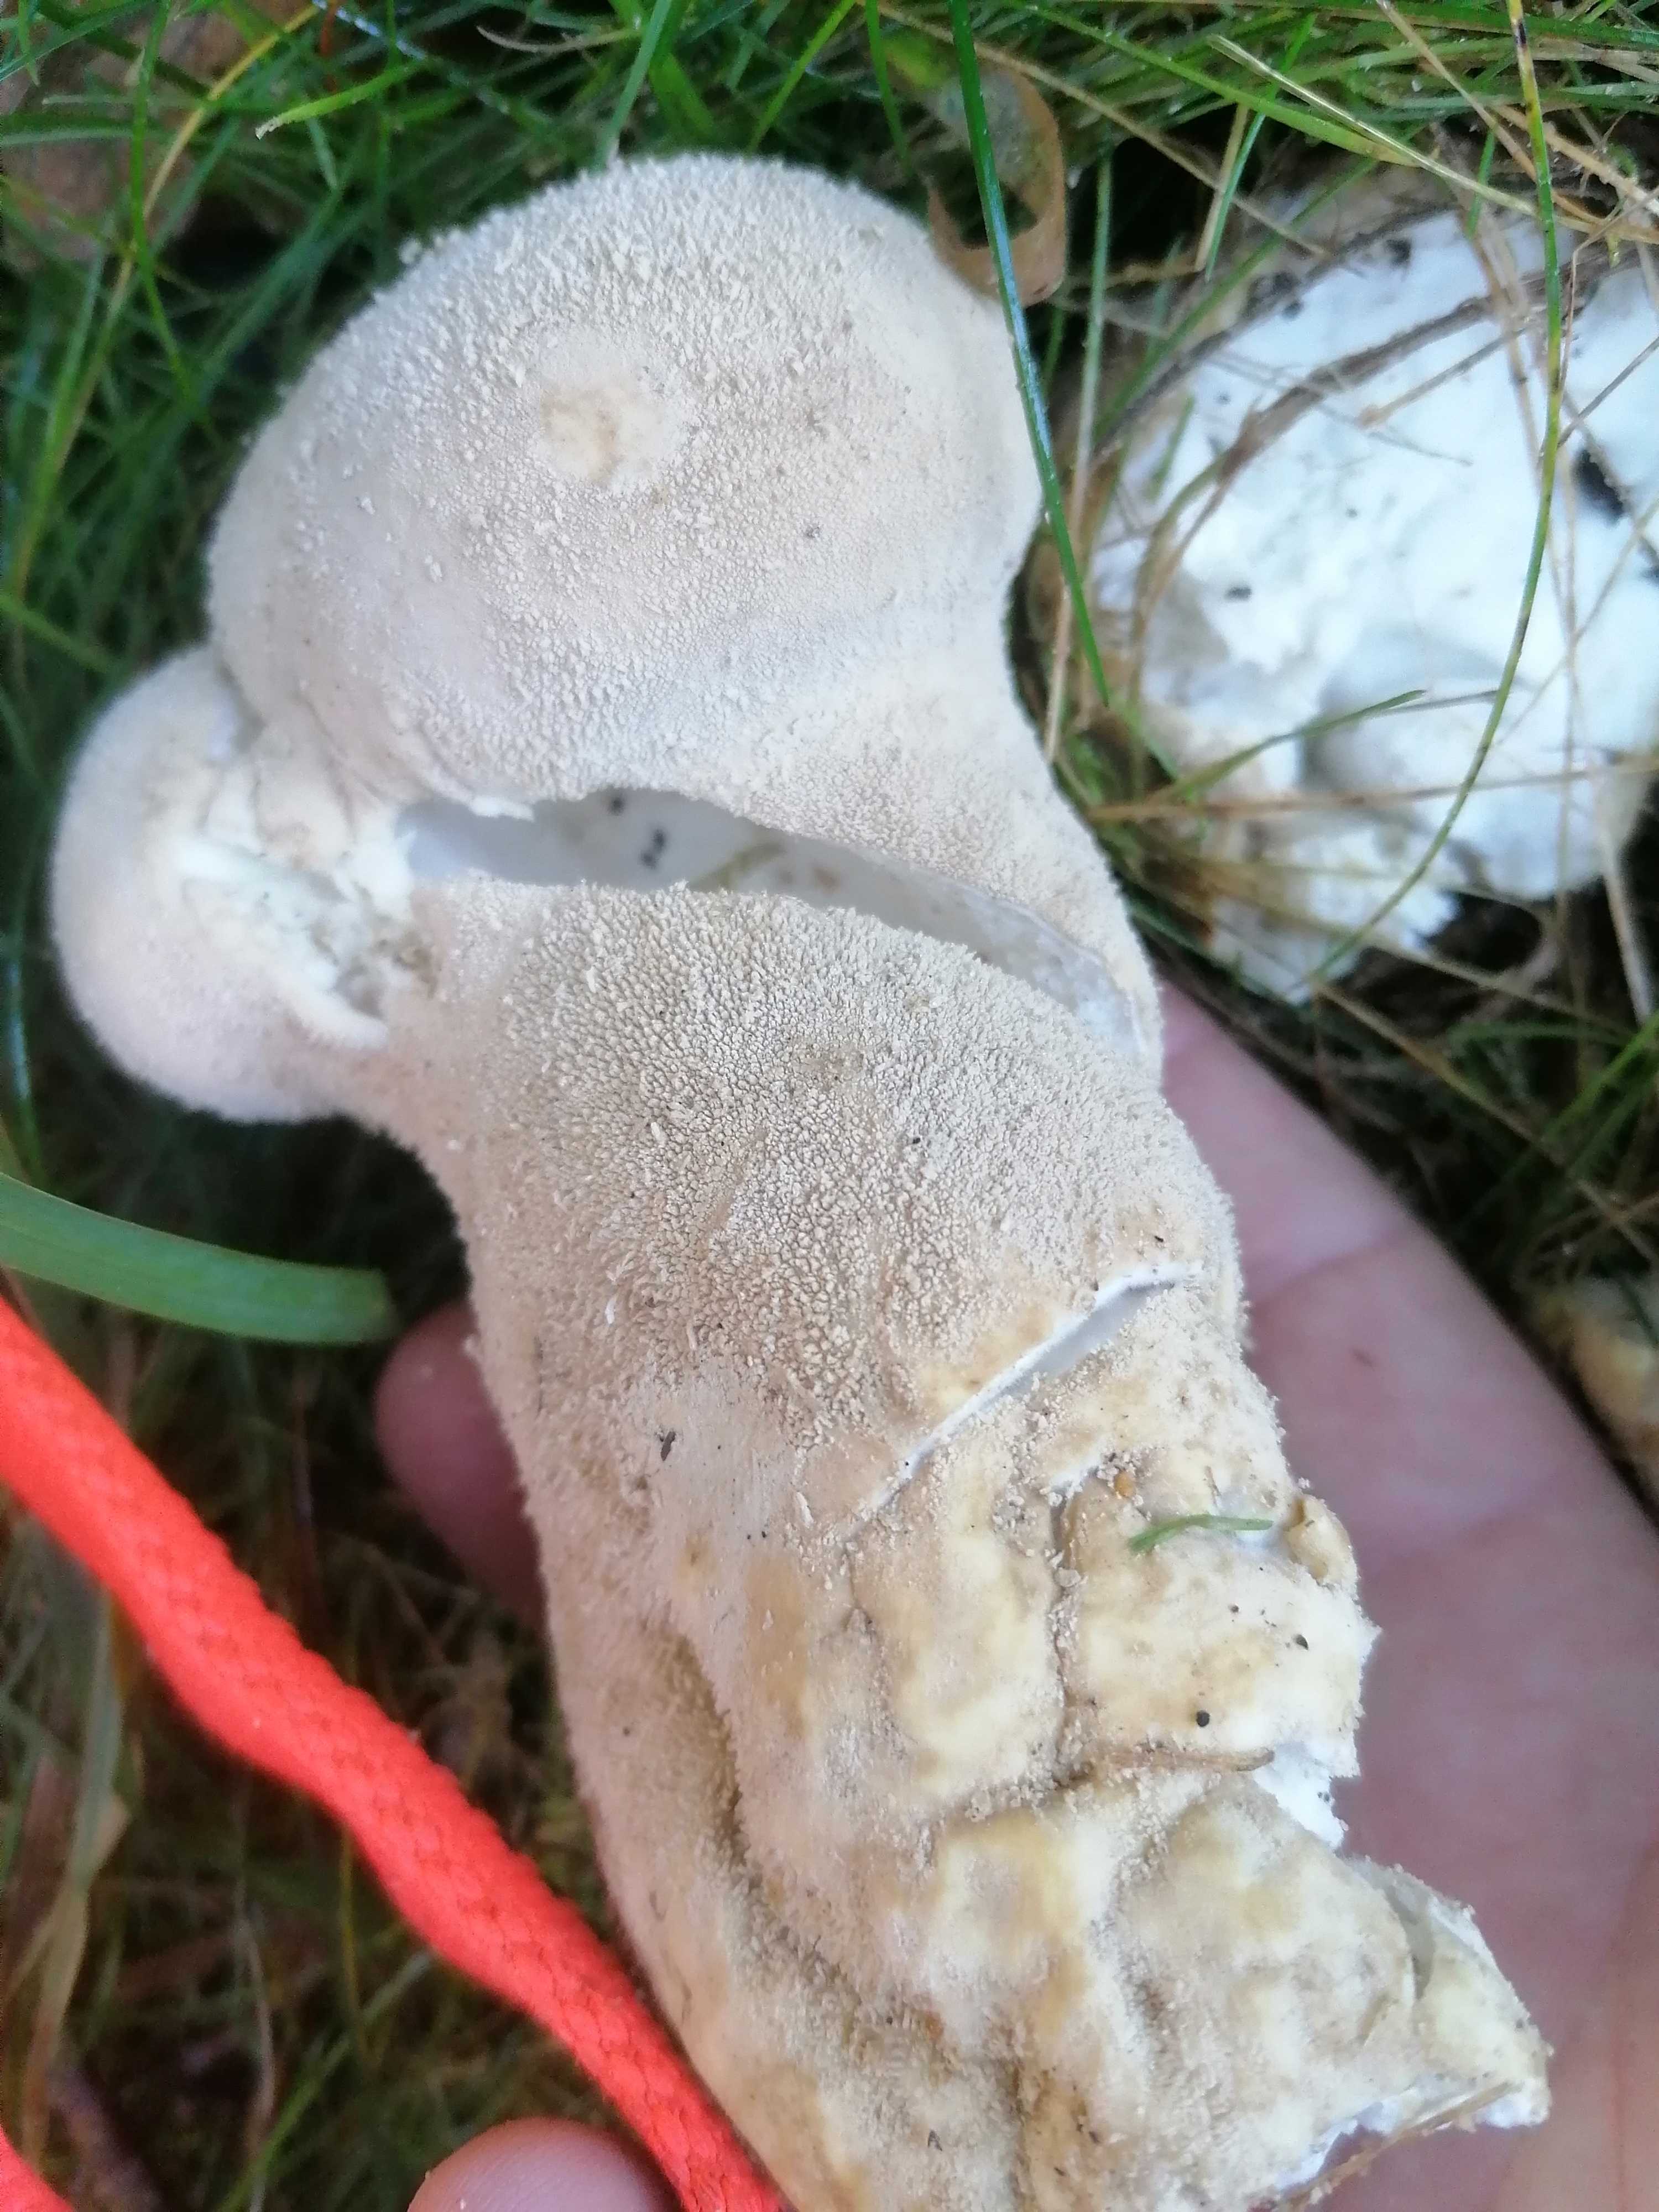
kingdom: Fungi
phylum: Basidiomycota
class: Agaricomycetes
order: Agaricales
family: Lycoperdaceae
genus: Lycoperdon
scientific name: Lycoperdon excipuliforme
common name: højstokket støvbold
